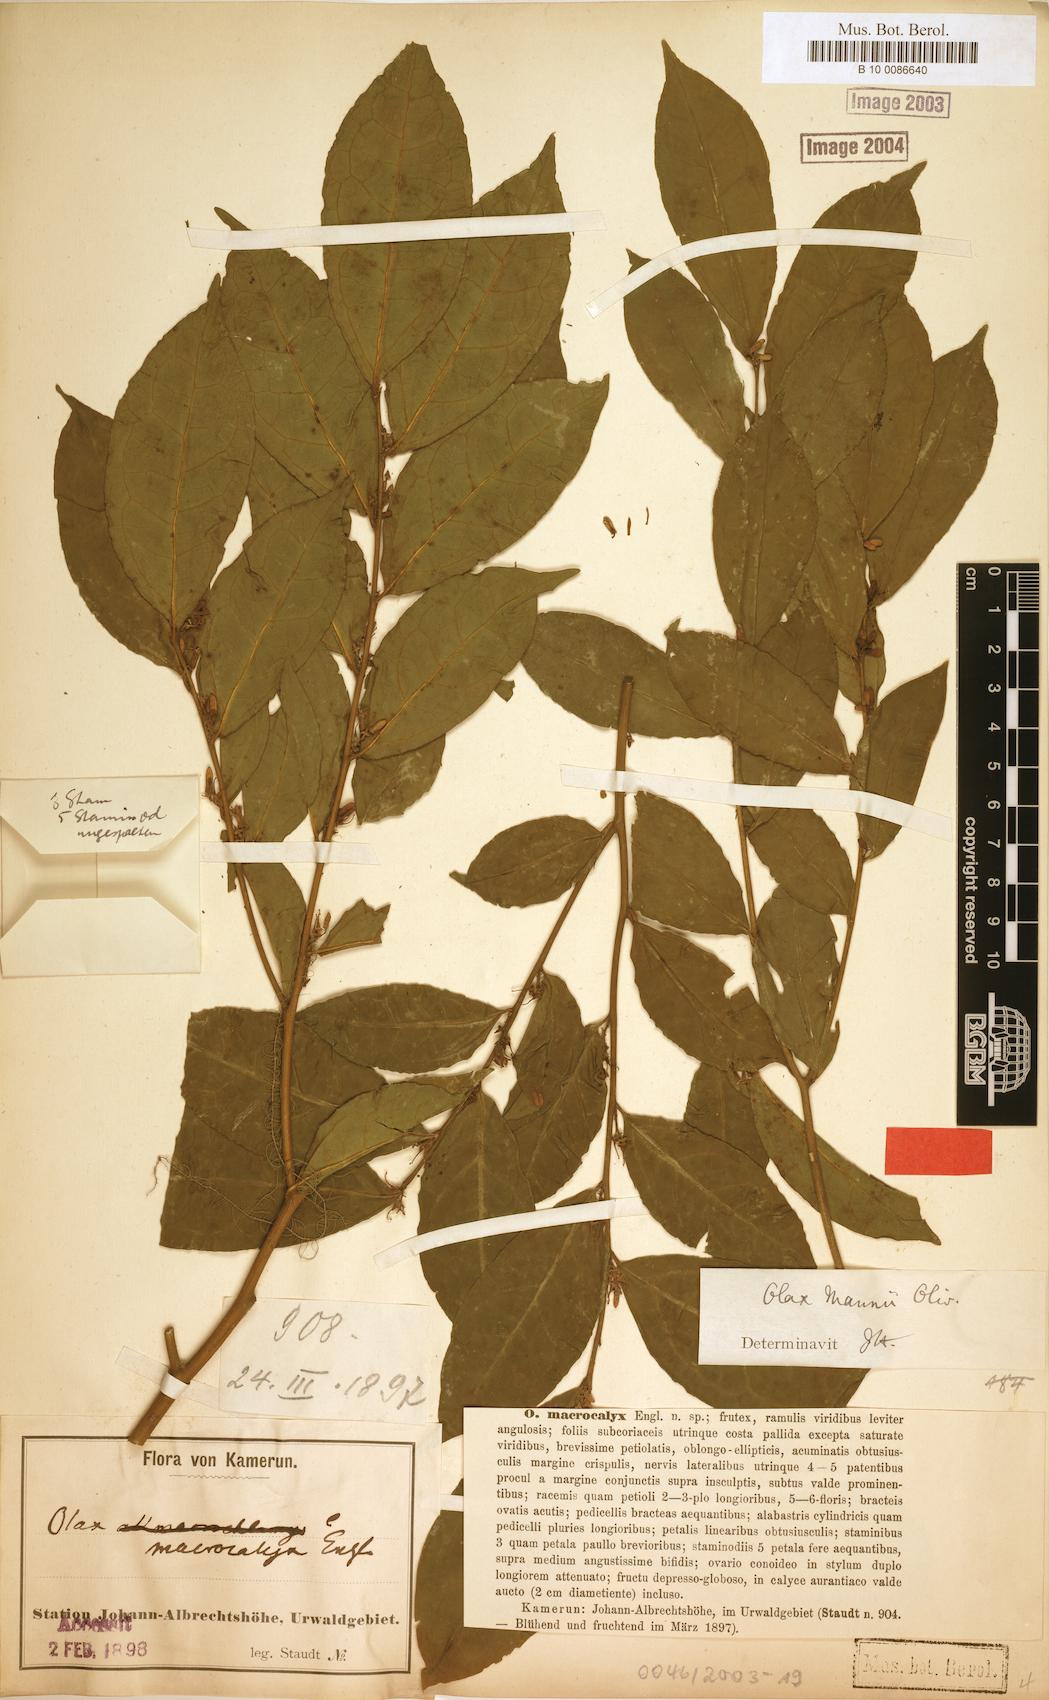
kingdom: Plantae
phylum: Tracheophyta
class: Magnoliopsida
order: Santalales
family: Olacaceae
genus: Olax
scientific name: Olax mannii
